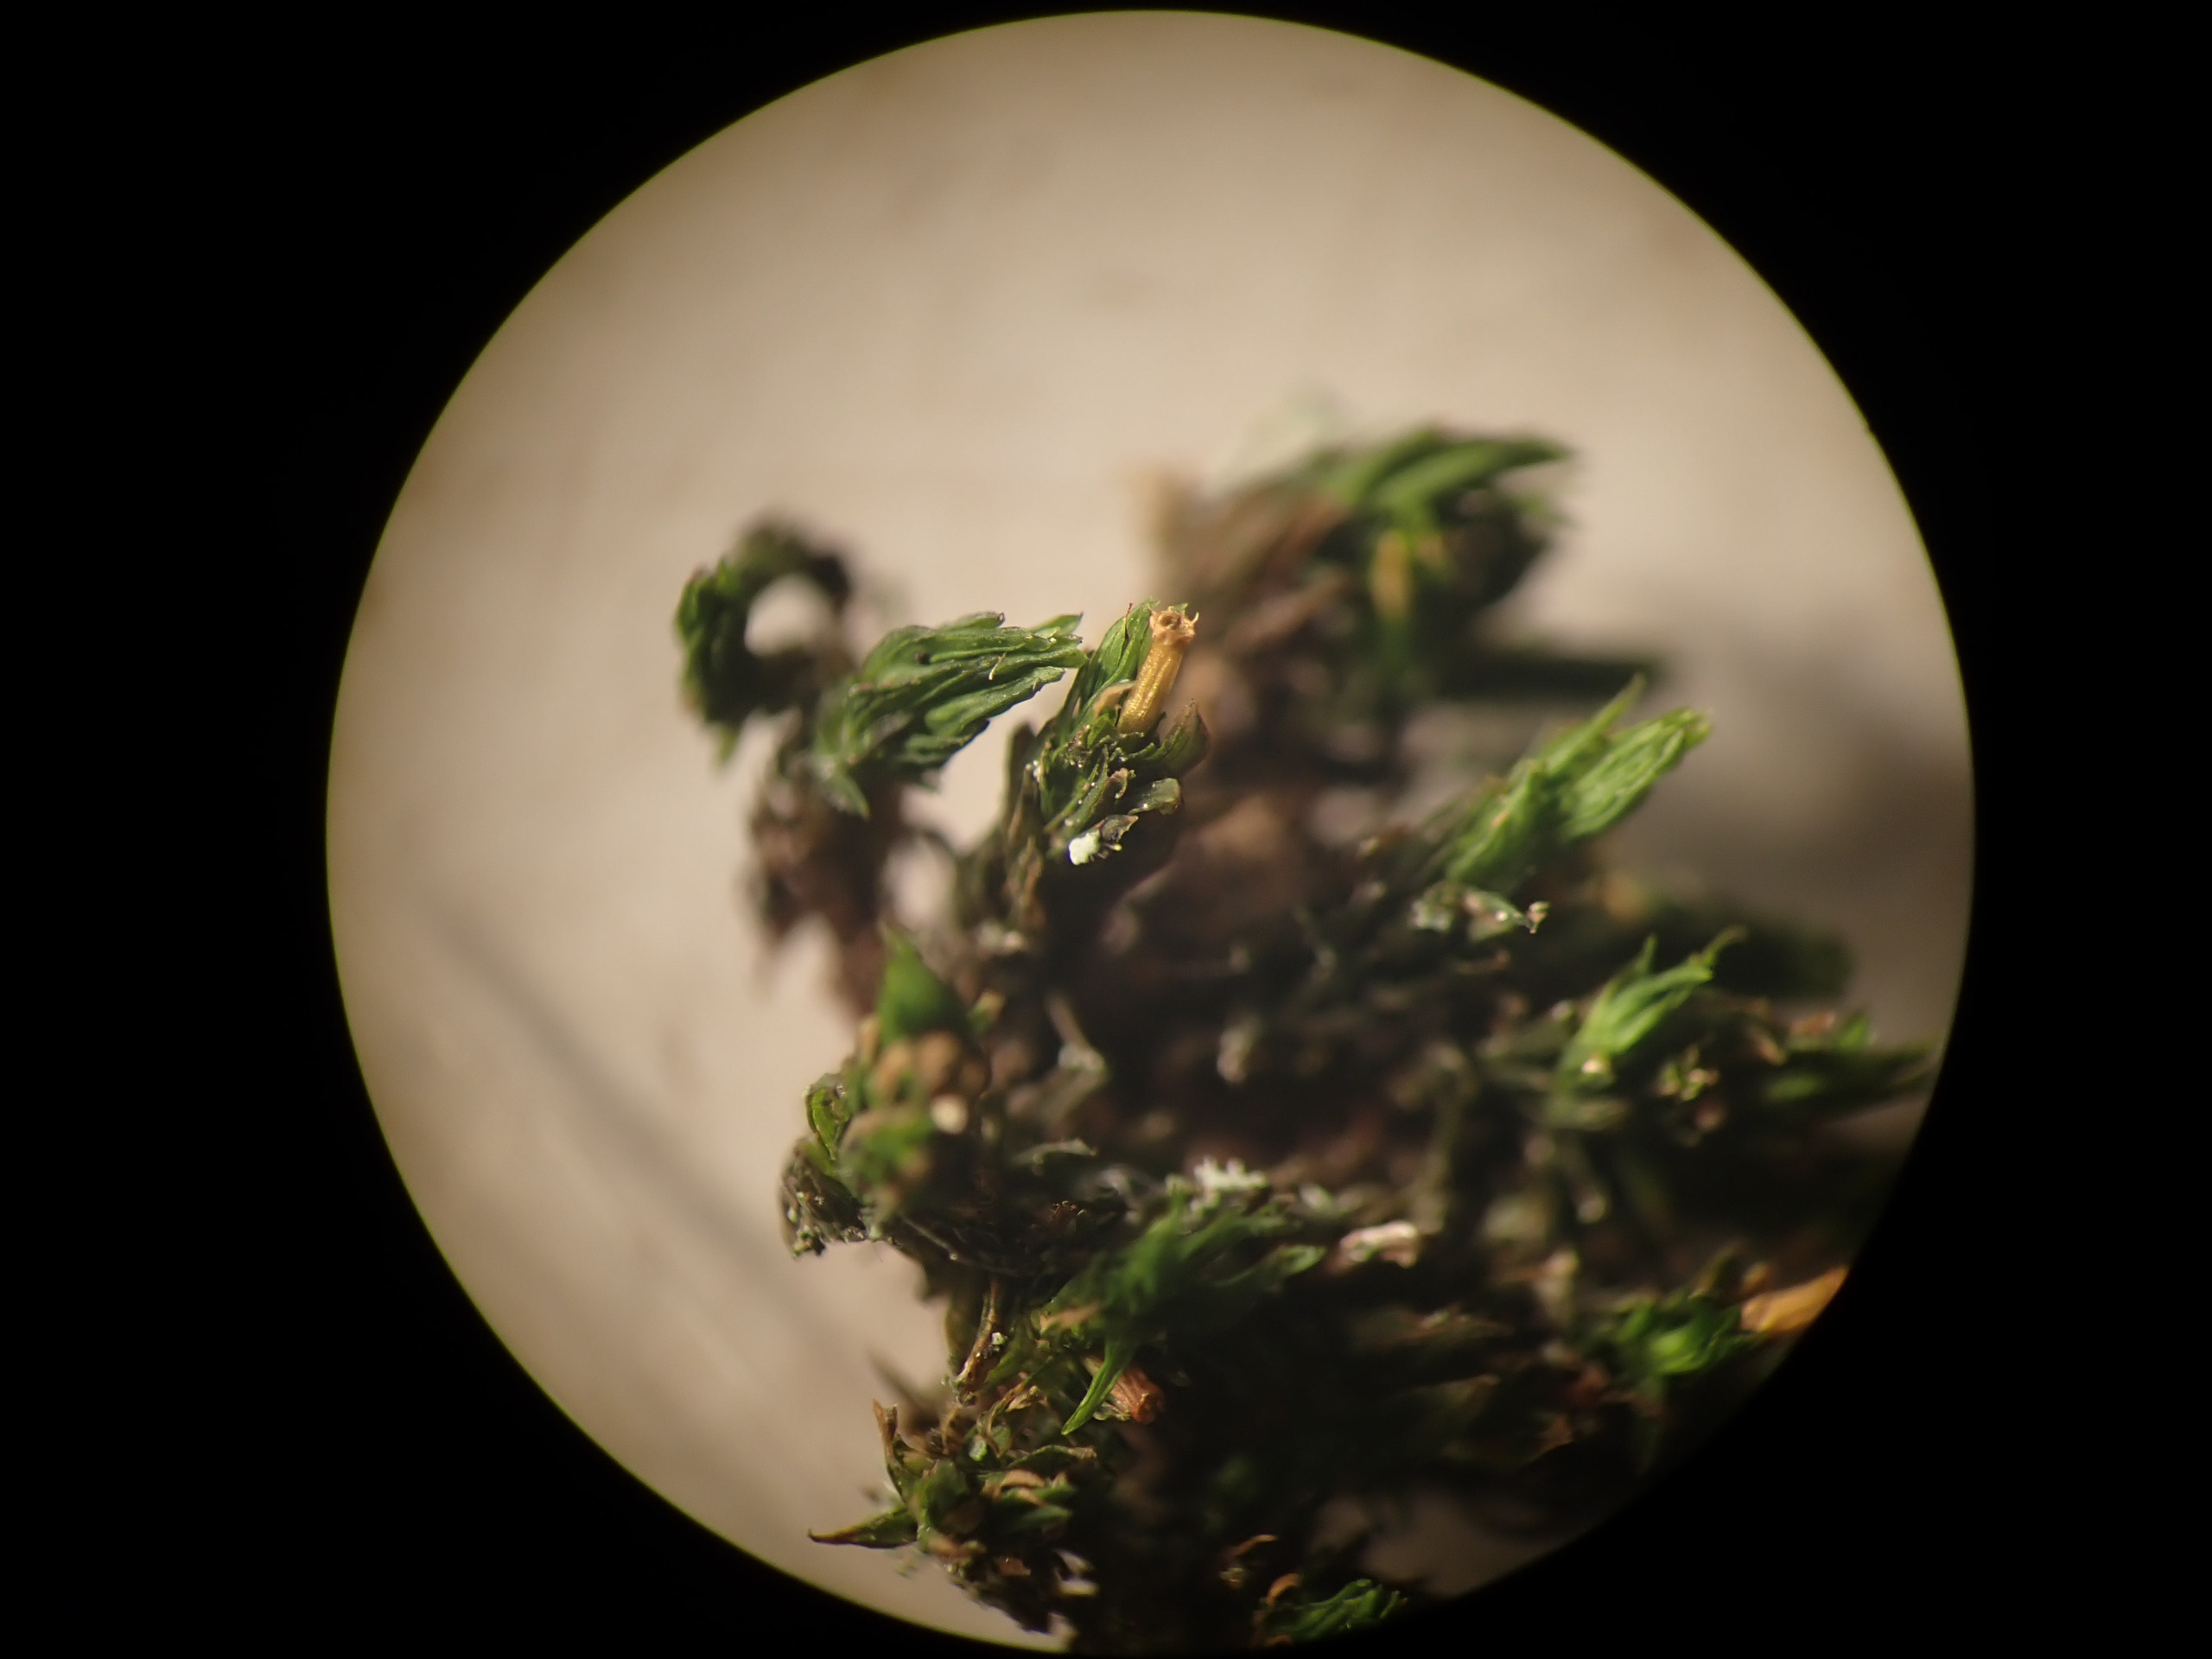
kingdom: Plantae
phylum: Bryophyta
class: Bryopsida
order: Orthotrichales
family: Orthotrichaceae
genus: Lewinskya
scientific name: Lewinskya affinis
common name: Almindelig furehætte
